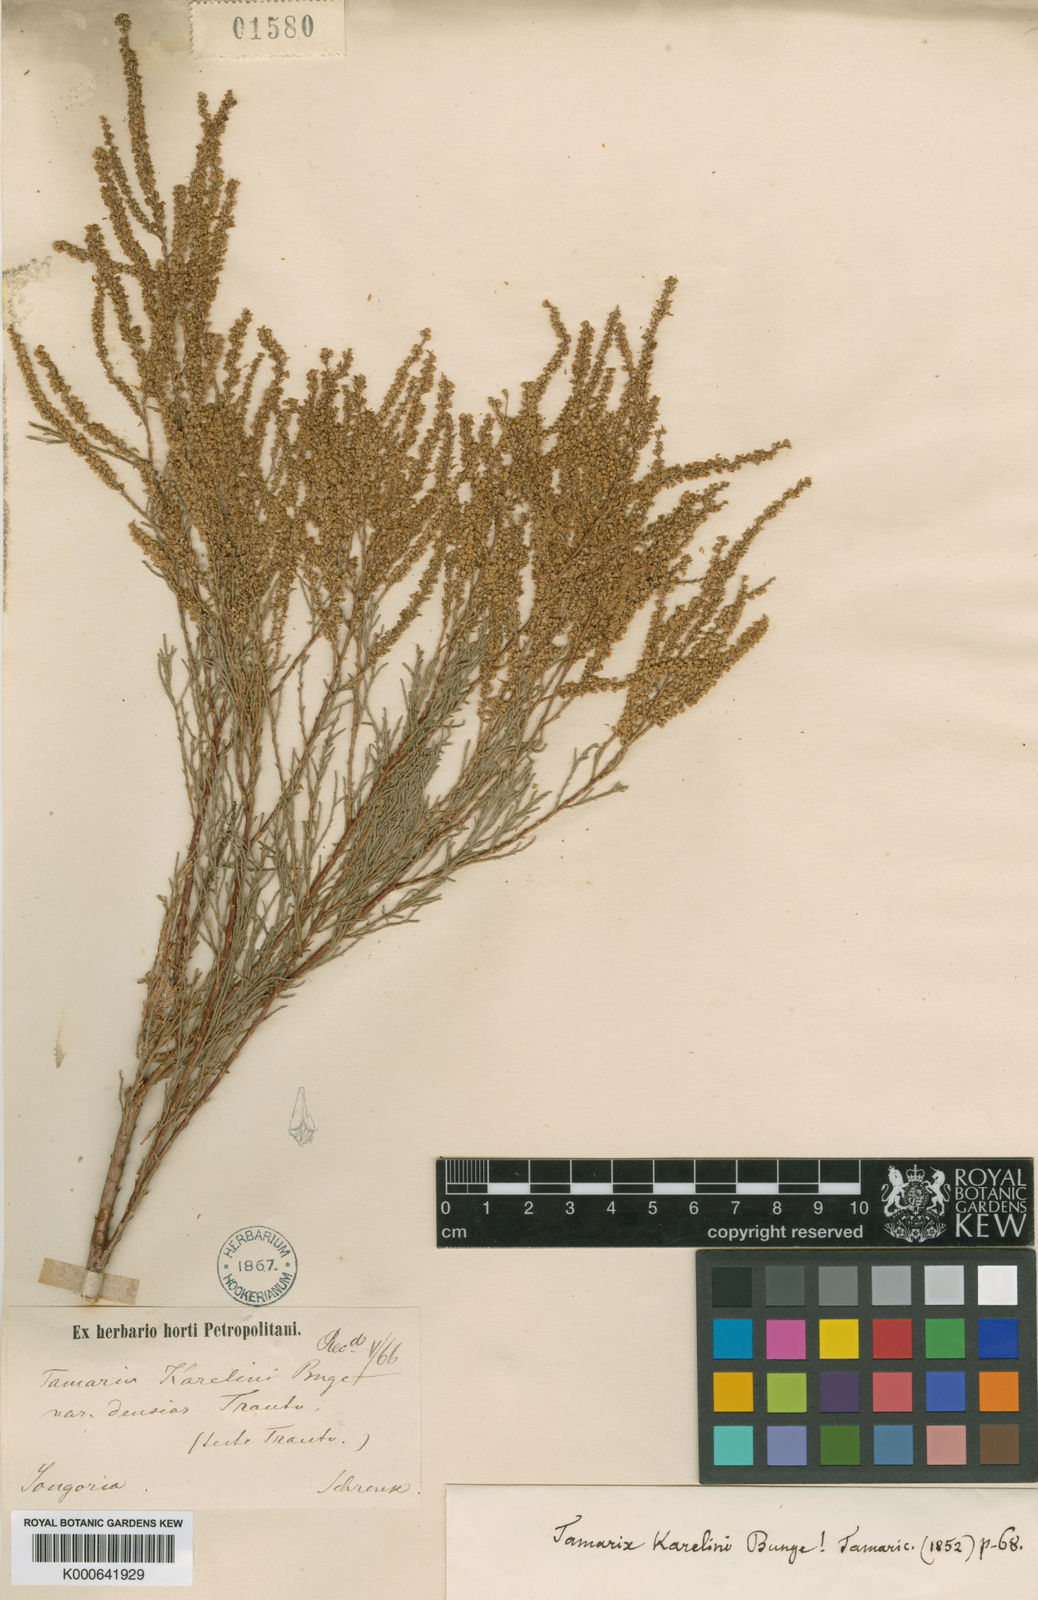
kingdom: Plantae
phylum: Tracheophyta
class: Magnoliopsida
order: Caryophyllales
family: Tamaricaceae
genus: Tamarix
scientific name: Tamarix karelinii
